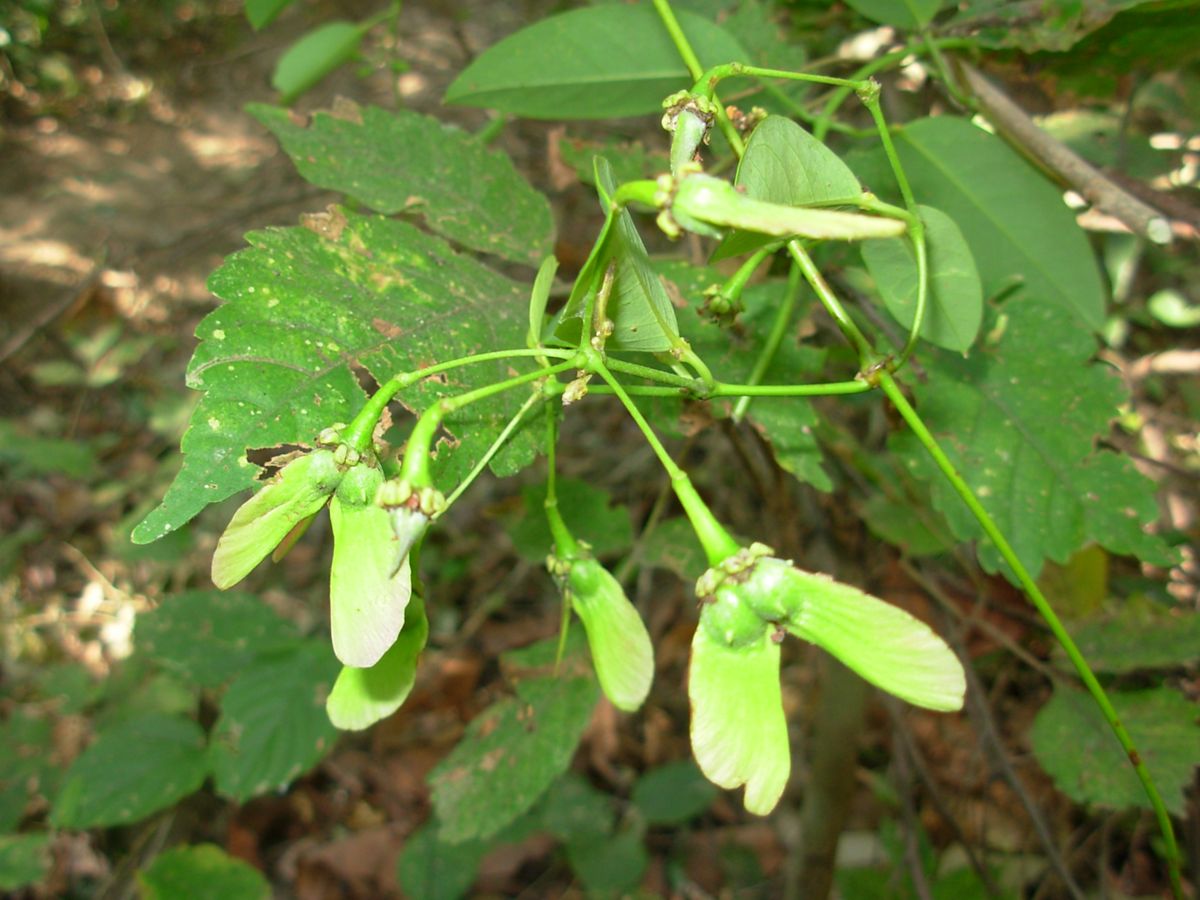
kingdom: Plantae
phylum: Tracheophyta
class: Magnoliopsida
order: Malpighiales
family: Malpighiaceae
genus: Stigmaphyllon
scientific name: Stigmaphyllon ellipticum
